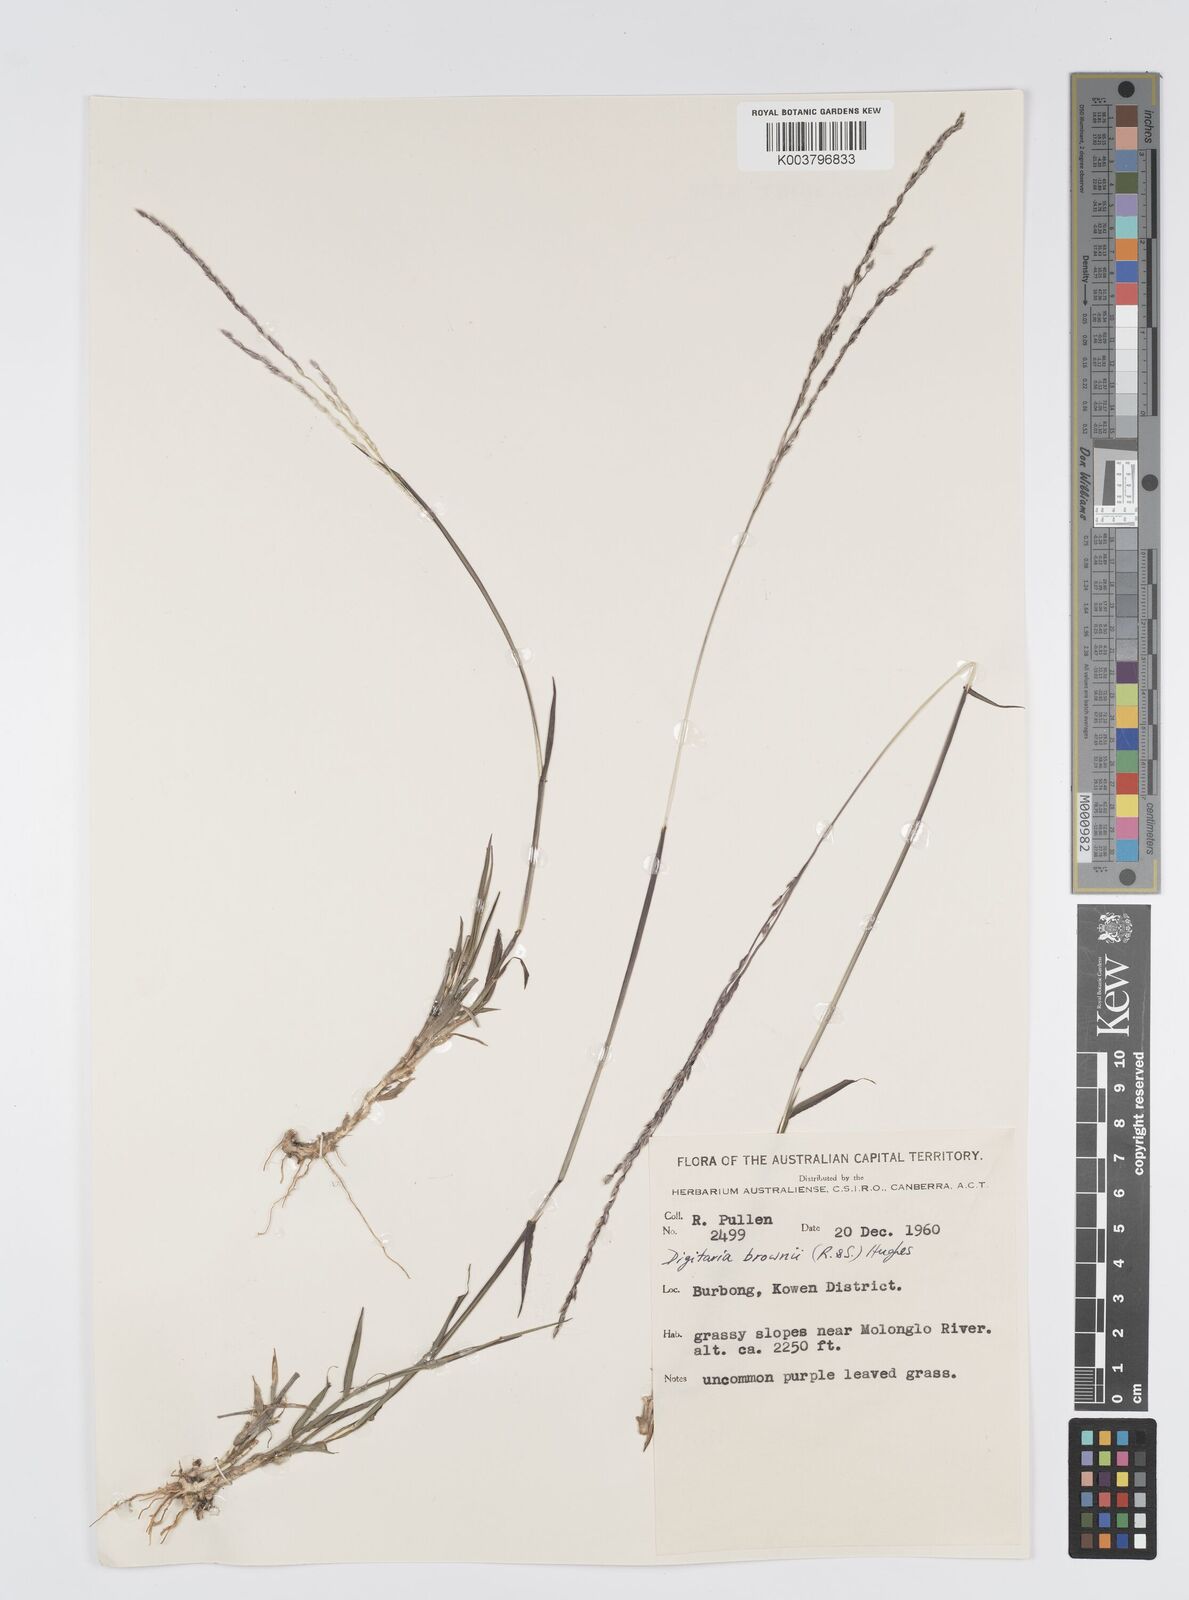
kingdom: Plantae
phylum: Tracheophyta
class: Liliopsida
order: Poales
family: Poaceae
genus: Digitaria
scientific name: Digitaria brownii
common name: Cotton grass
